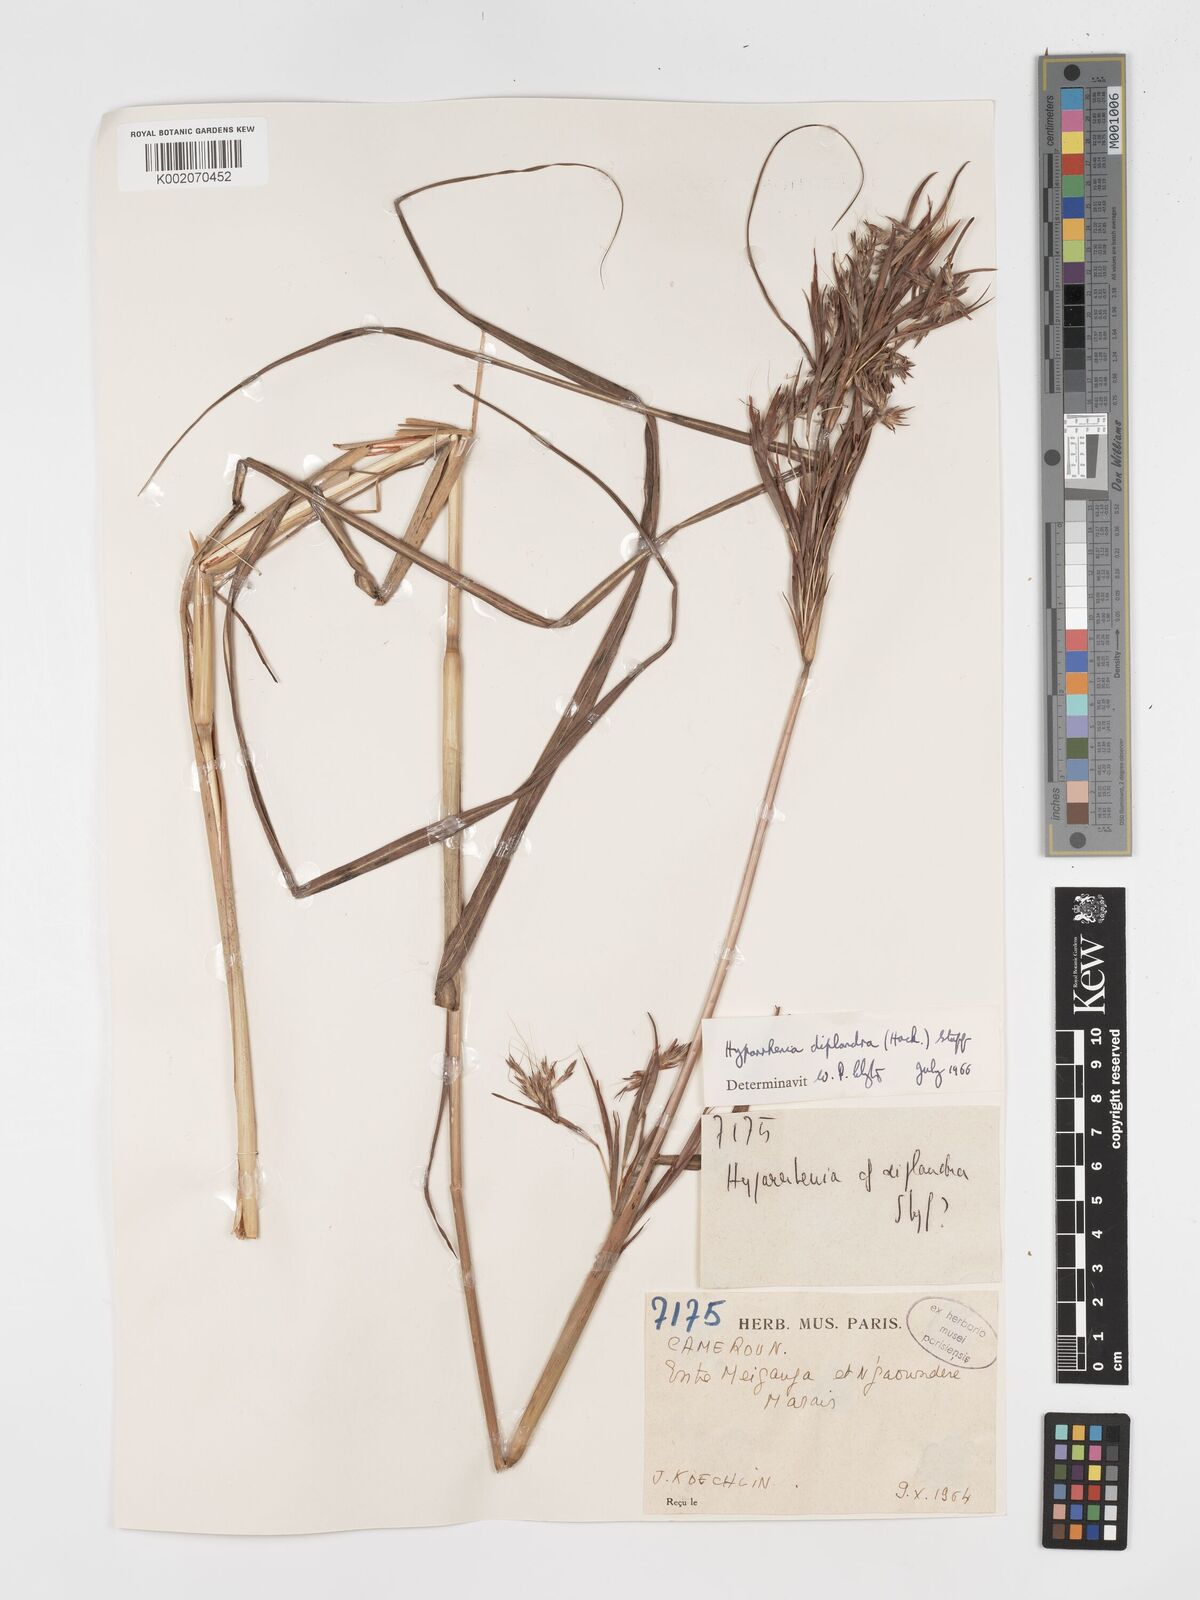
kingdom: Plantae
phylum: Tracheophyta
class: Liliopsida
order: Poales
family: Poaceae
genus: Hyparrhenia
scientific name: Hyparrhenia diplandra
